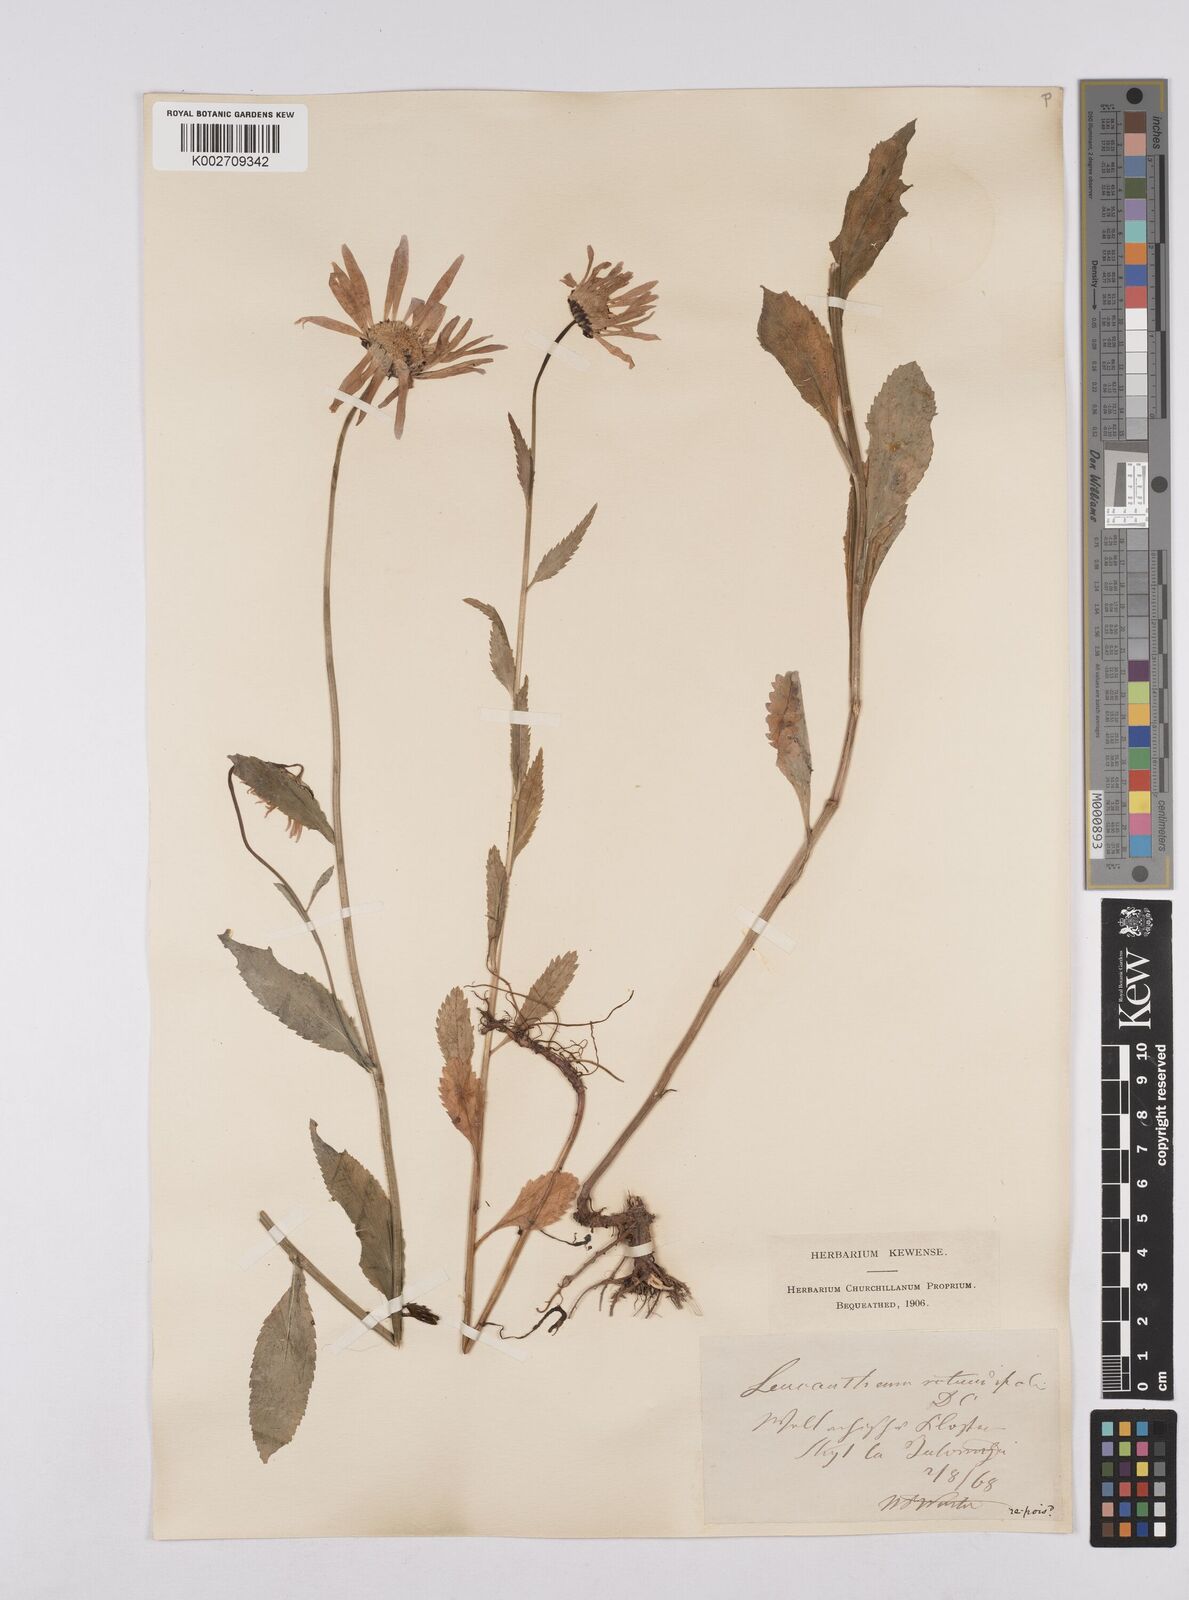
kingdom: Plantae
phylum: Tracheophyta
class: Magnoliopsida
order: Asterales
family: Asteraceae
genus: Leucanthemum
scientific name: Leucanthemum rotundifolium
